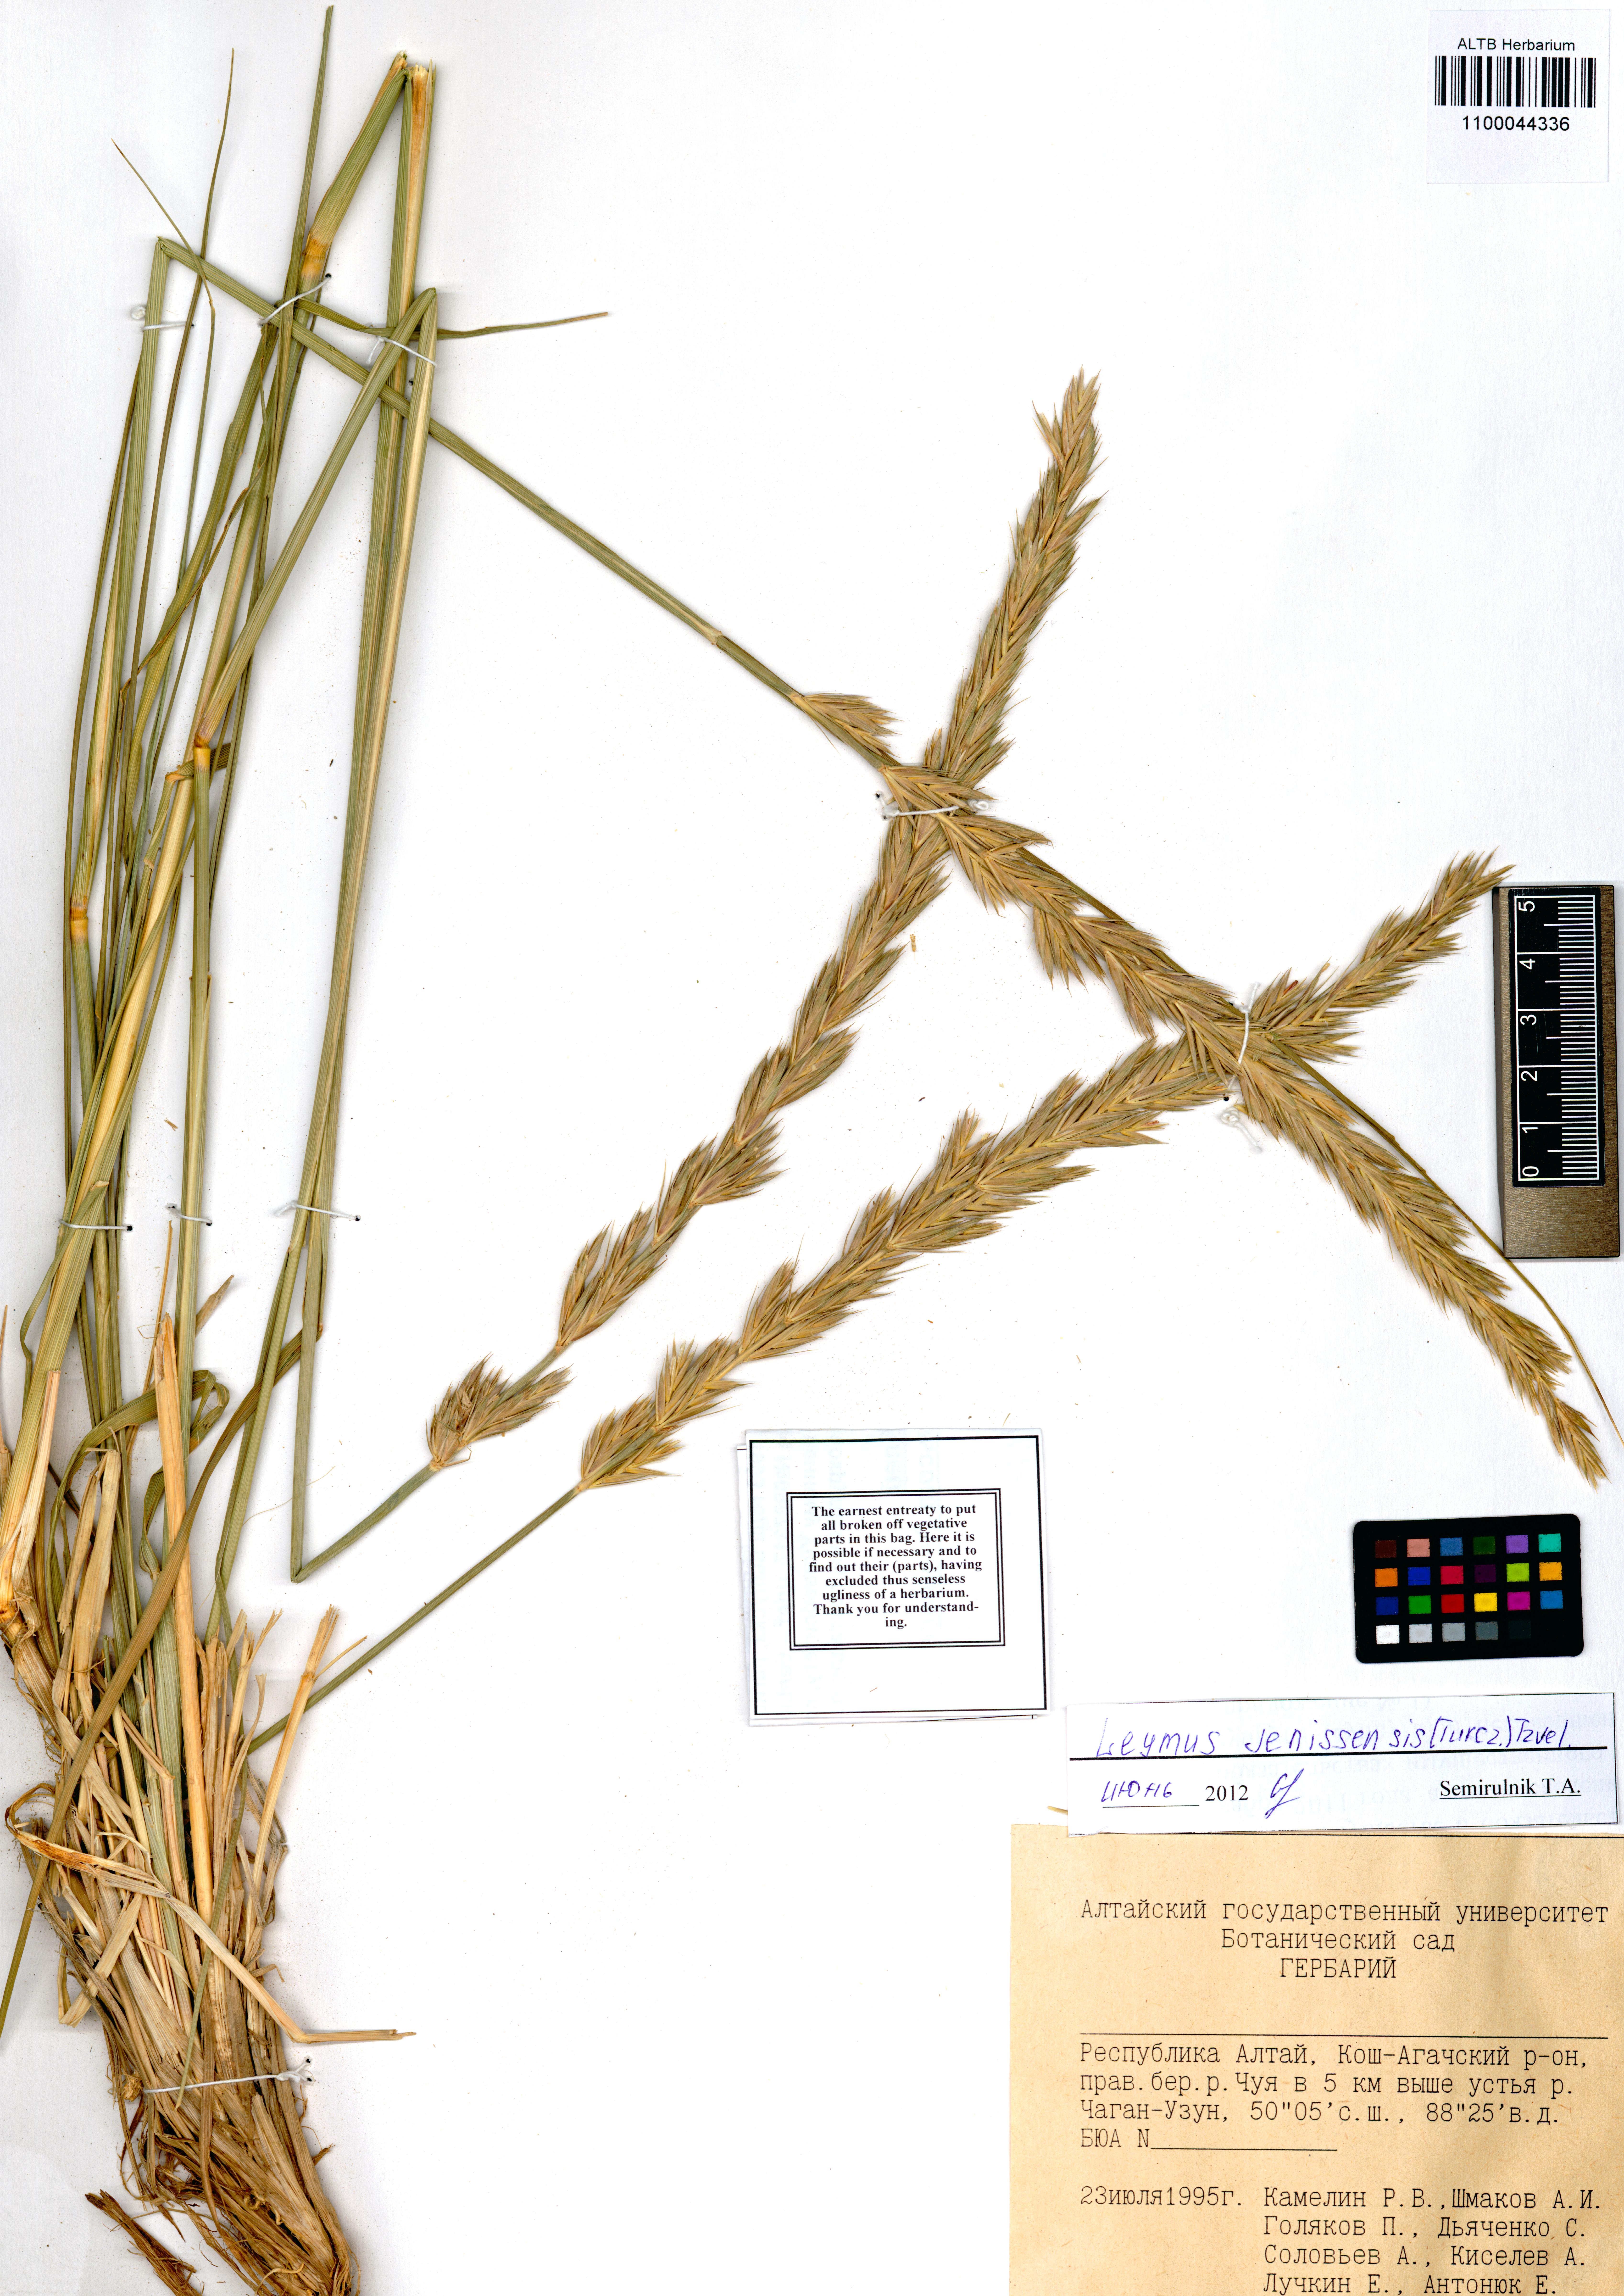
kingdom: Plantae
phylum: Tracheophyta
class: Liliopsida
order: Poales
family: Poaceae
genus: Leymus
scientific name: Leymus jenisseiensis
